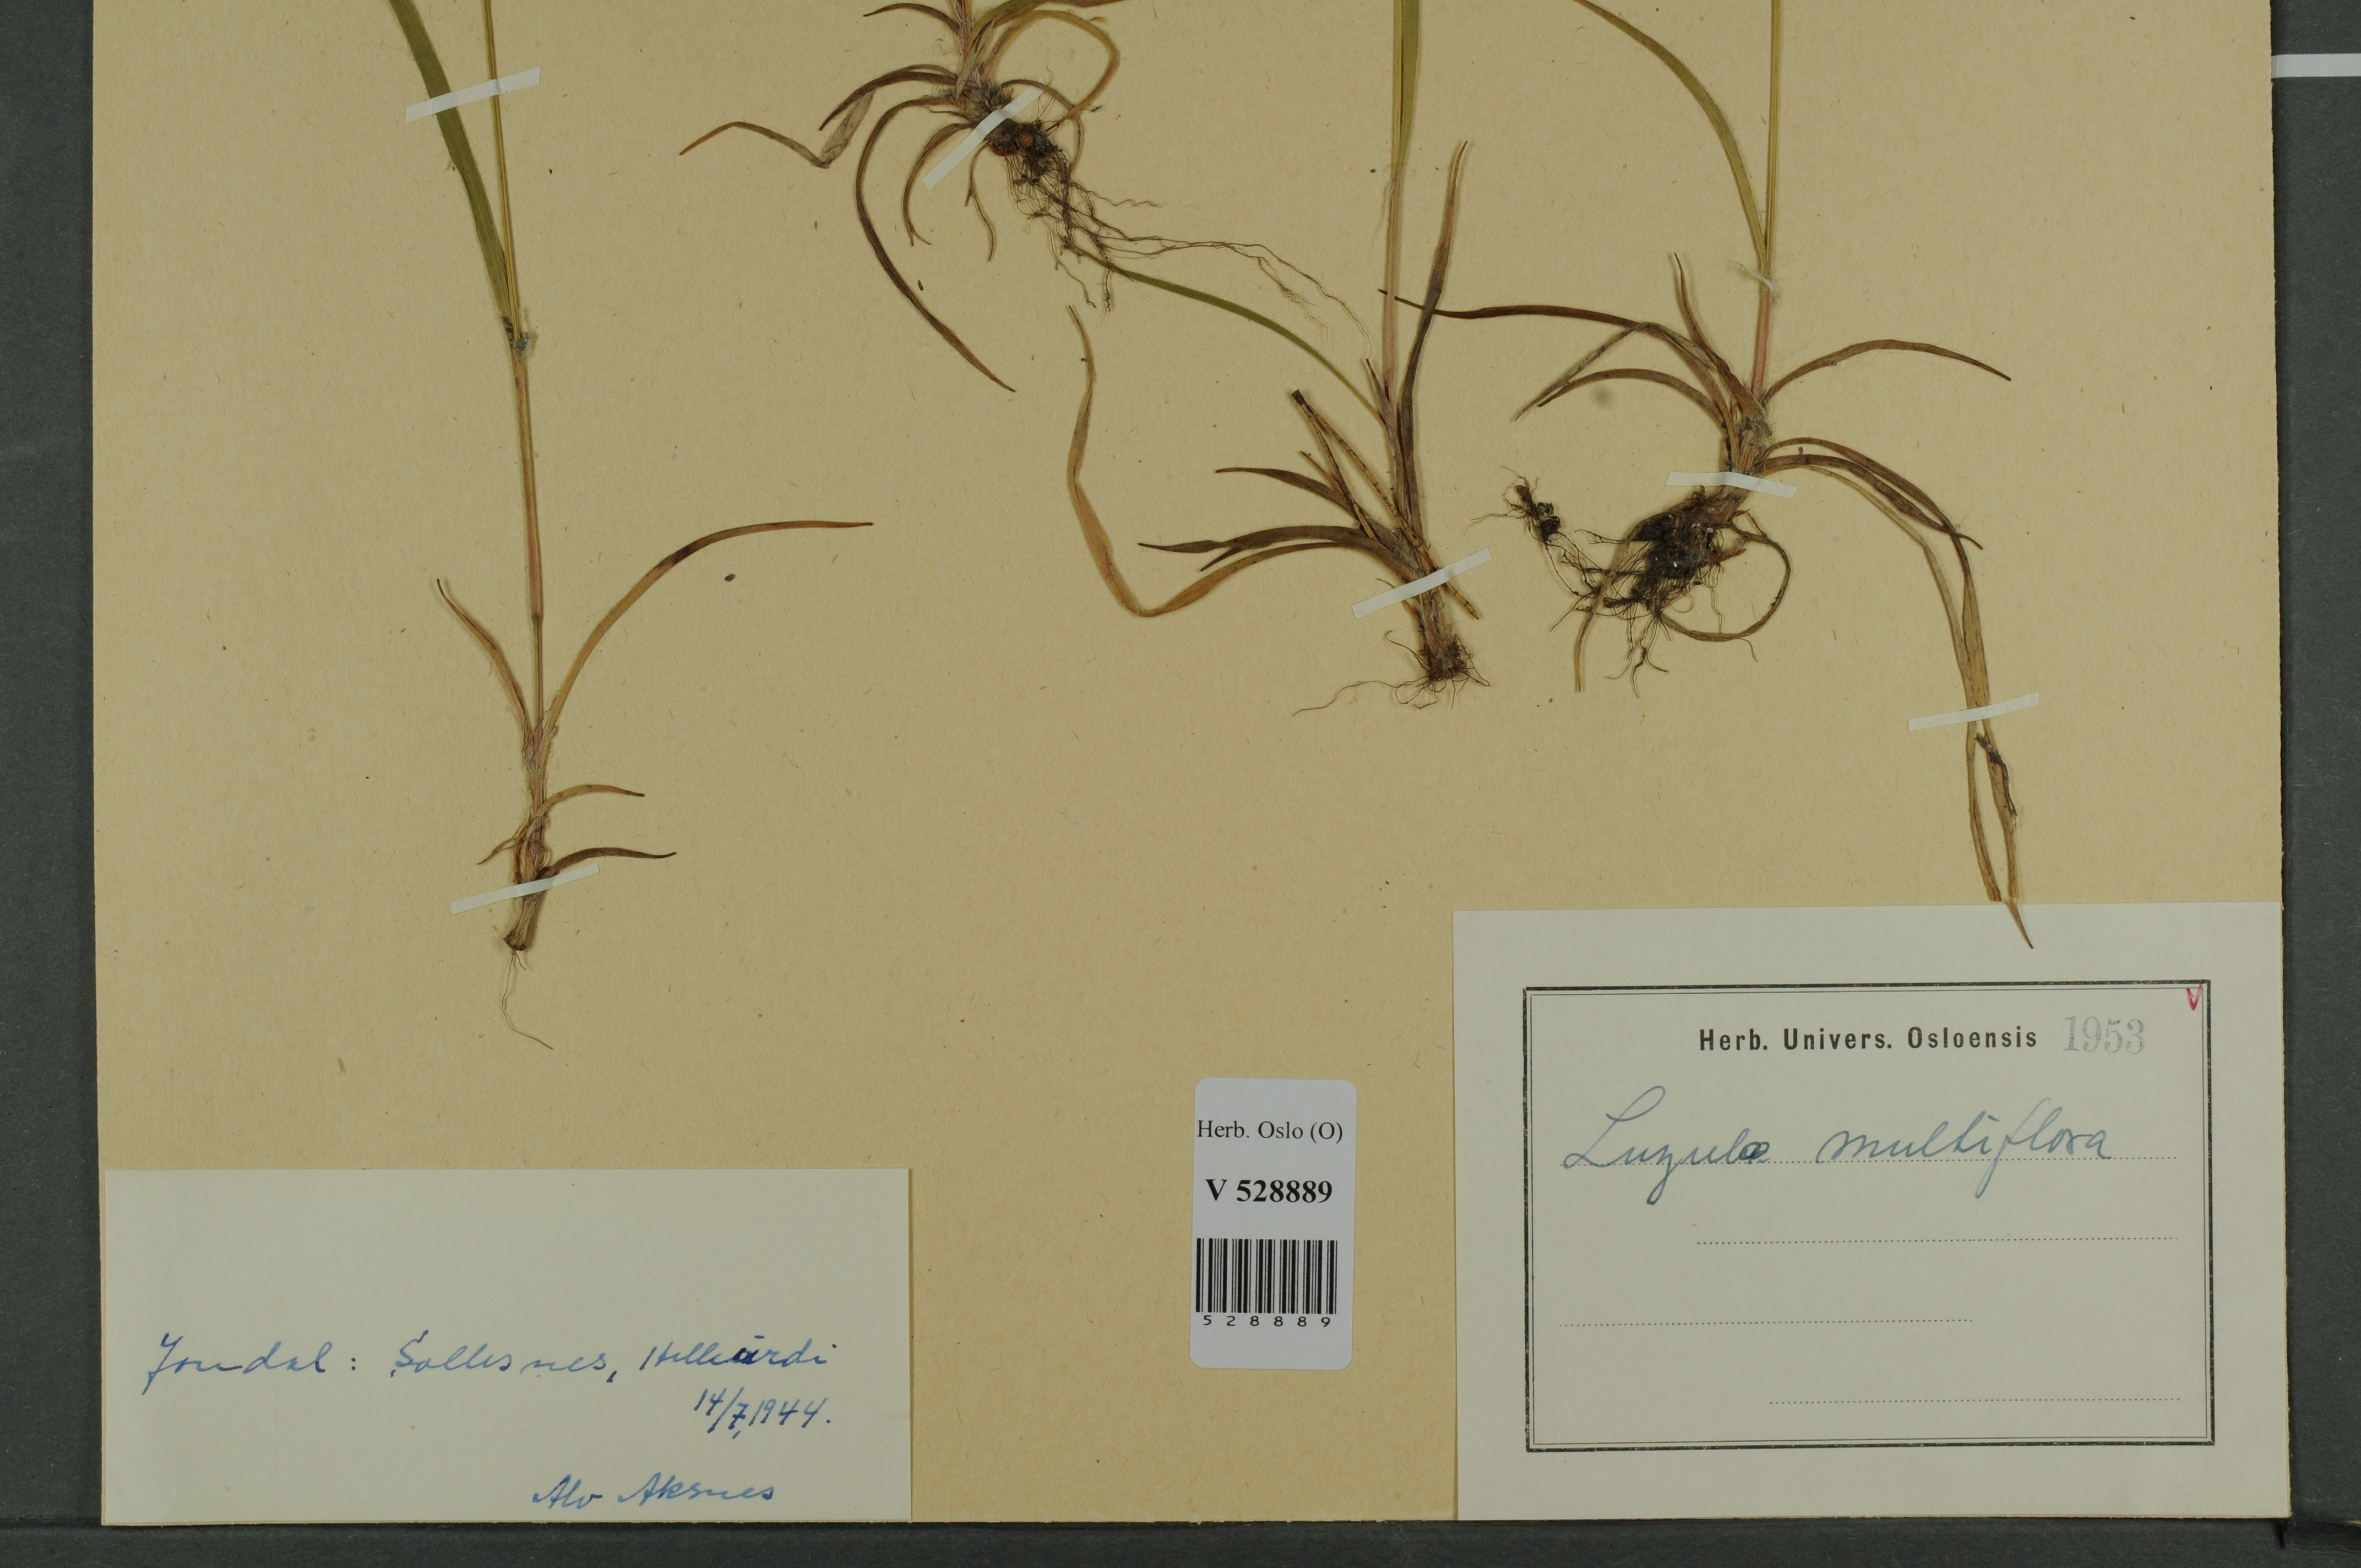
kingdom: Plantae
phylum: Tracheophyta
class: Liliopsida
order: Poales
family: Juncaceae
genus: Luzula
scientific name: Luzula multiflora
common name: Heath wood-rush
